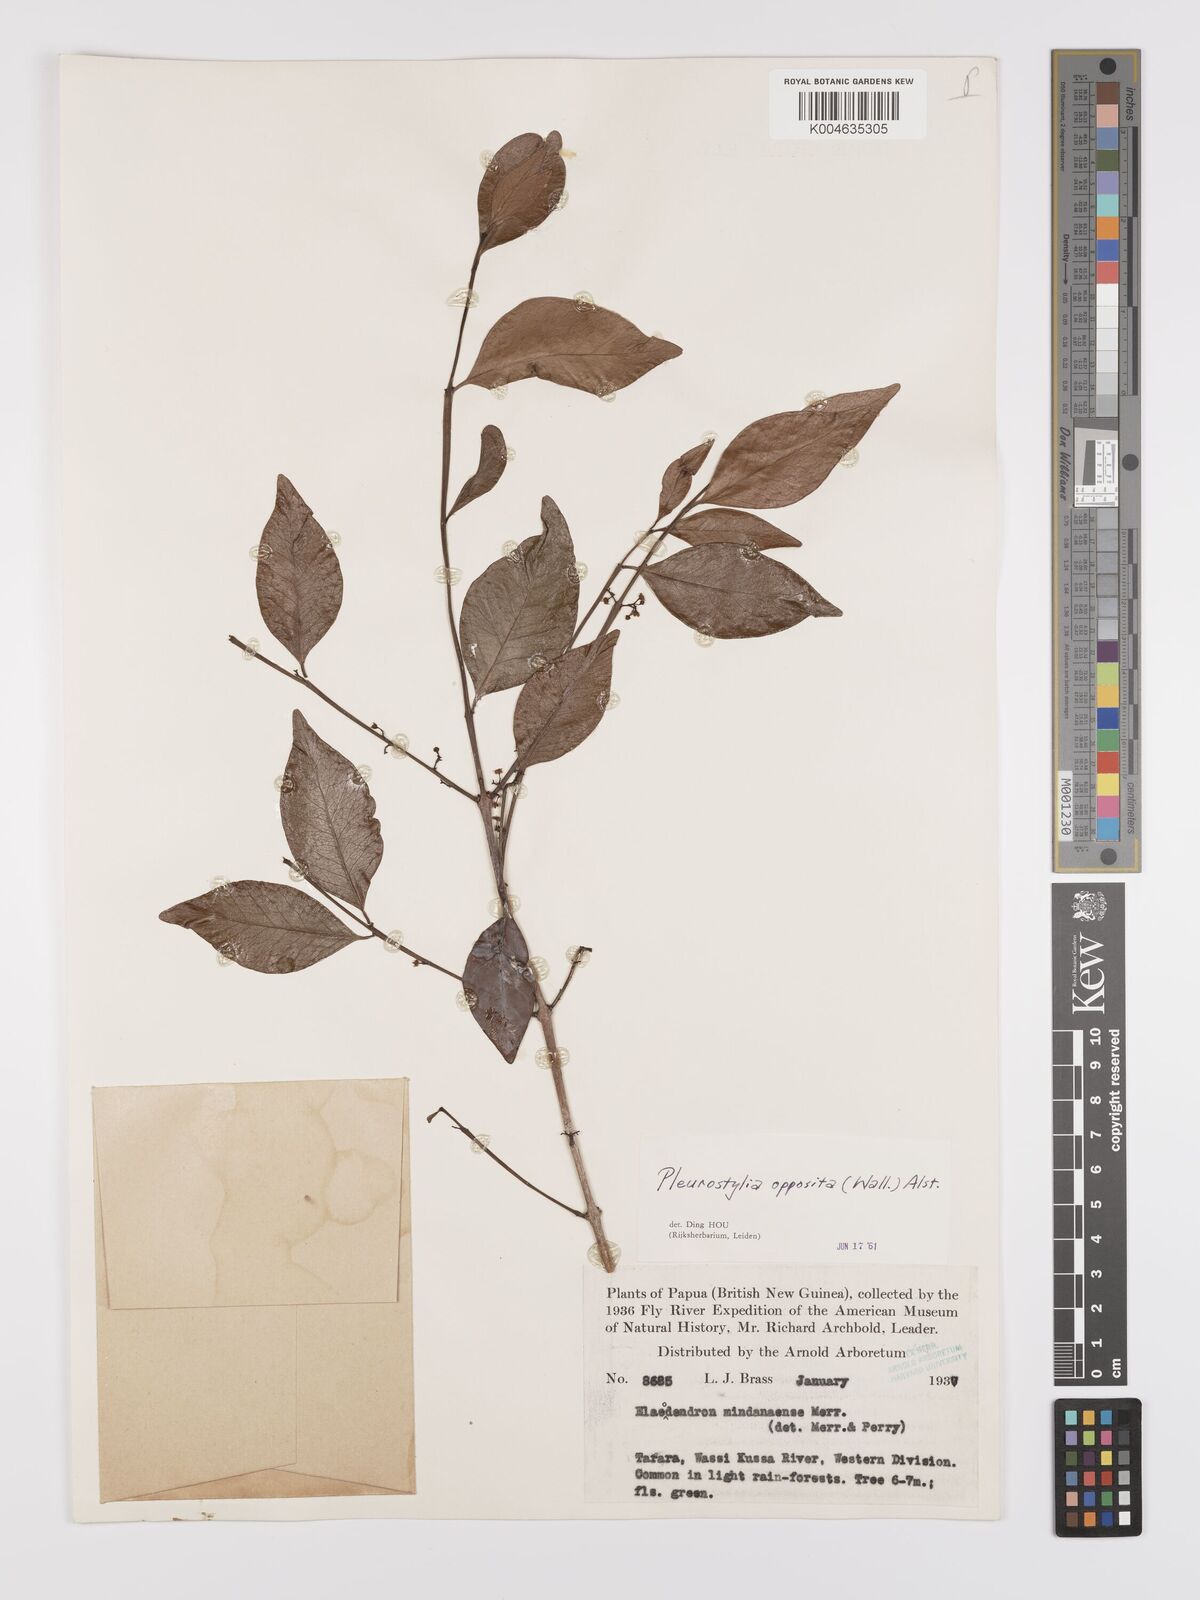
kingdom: Plantae
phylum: Tracheophyta
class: Magnoliopsida
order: Celastrales
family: Celastraceae
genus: Pleurostylia
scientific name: Pleurostylia opposita
